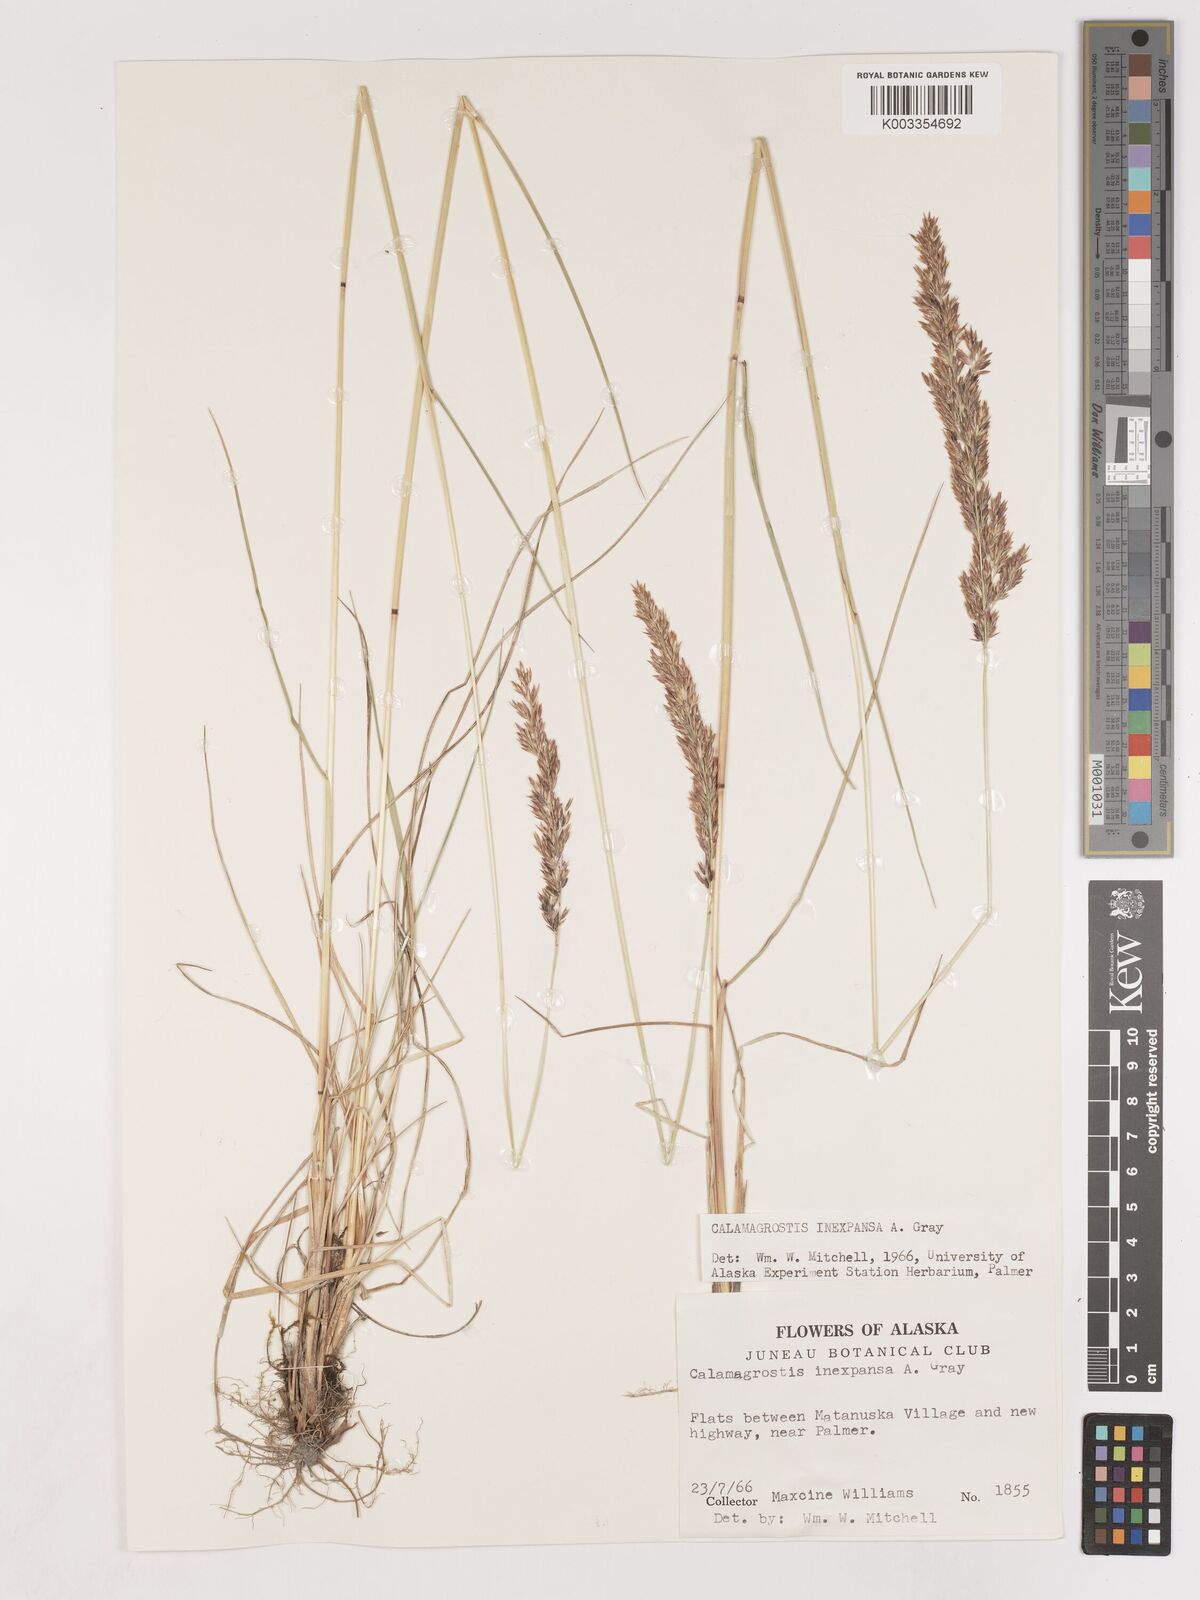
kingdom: Plantae
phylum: Tracheophyta
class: Liliopsida
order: Poales
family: Poaceae
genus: Cinnagrostis
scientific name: Cinnagrostis recta
